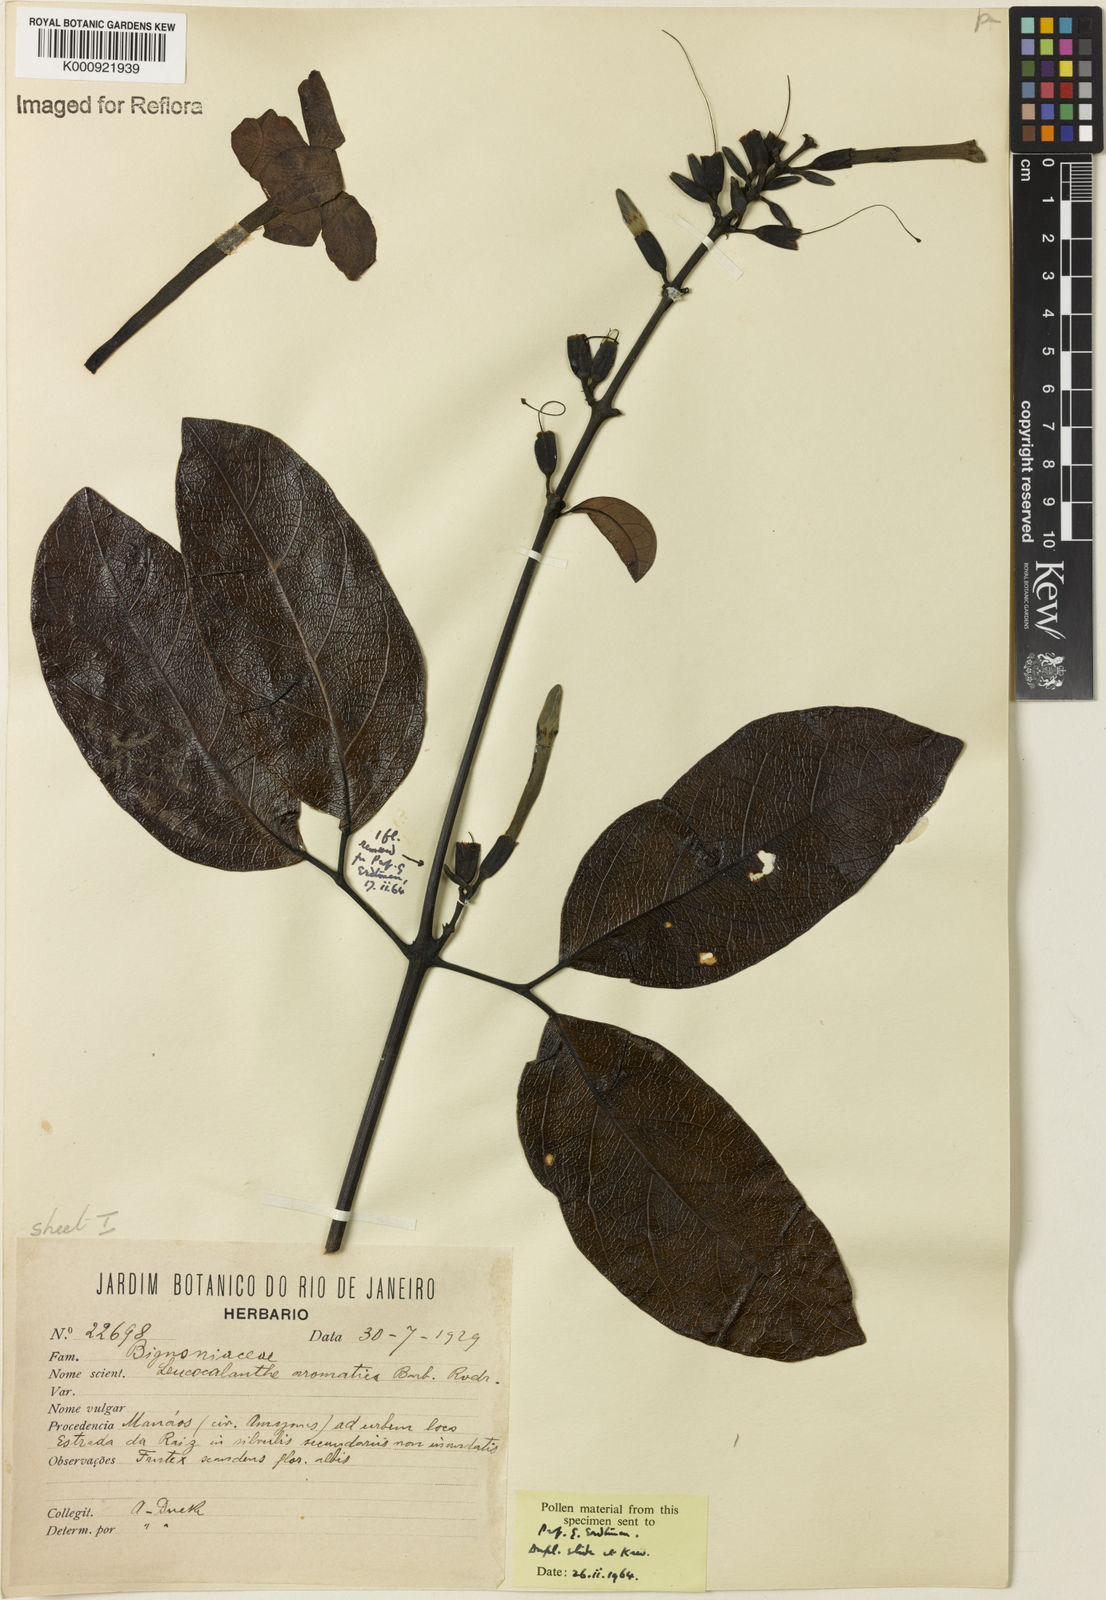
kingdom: Plantae
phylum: Tracheophyta
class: Magnoliopsida
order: Lamiales
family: Bignoniaceae
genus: Pachyptera
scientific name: Pachyptera aromatica
